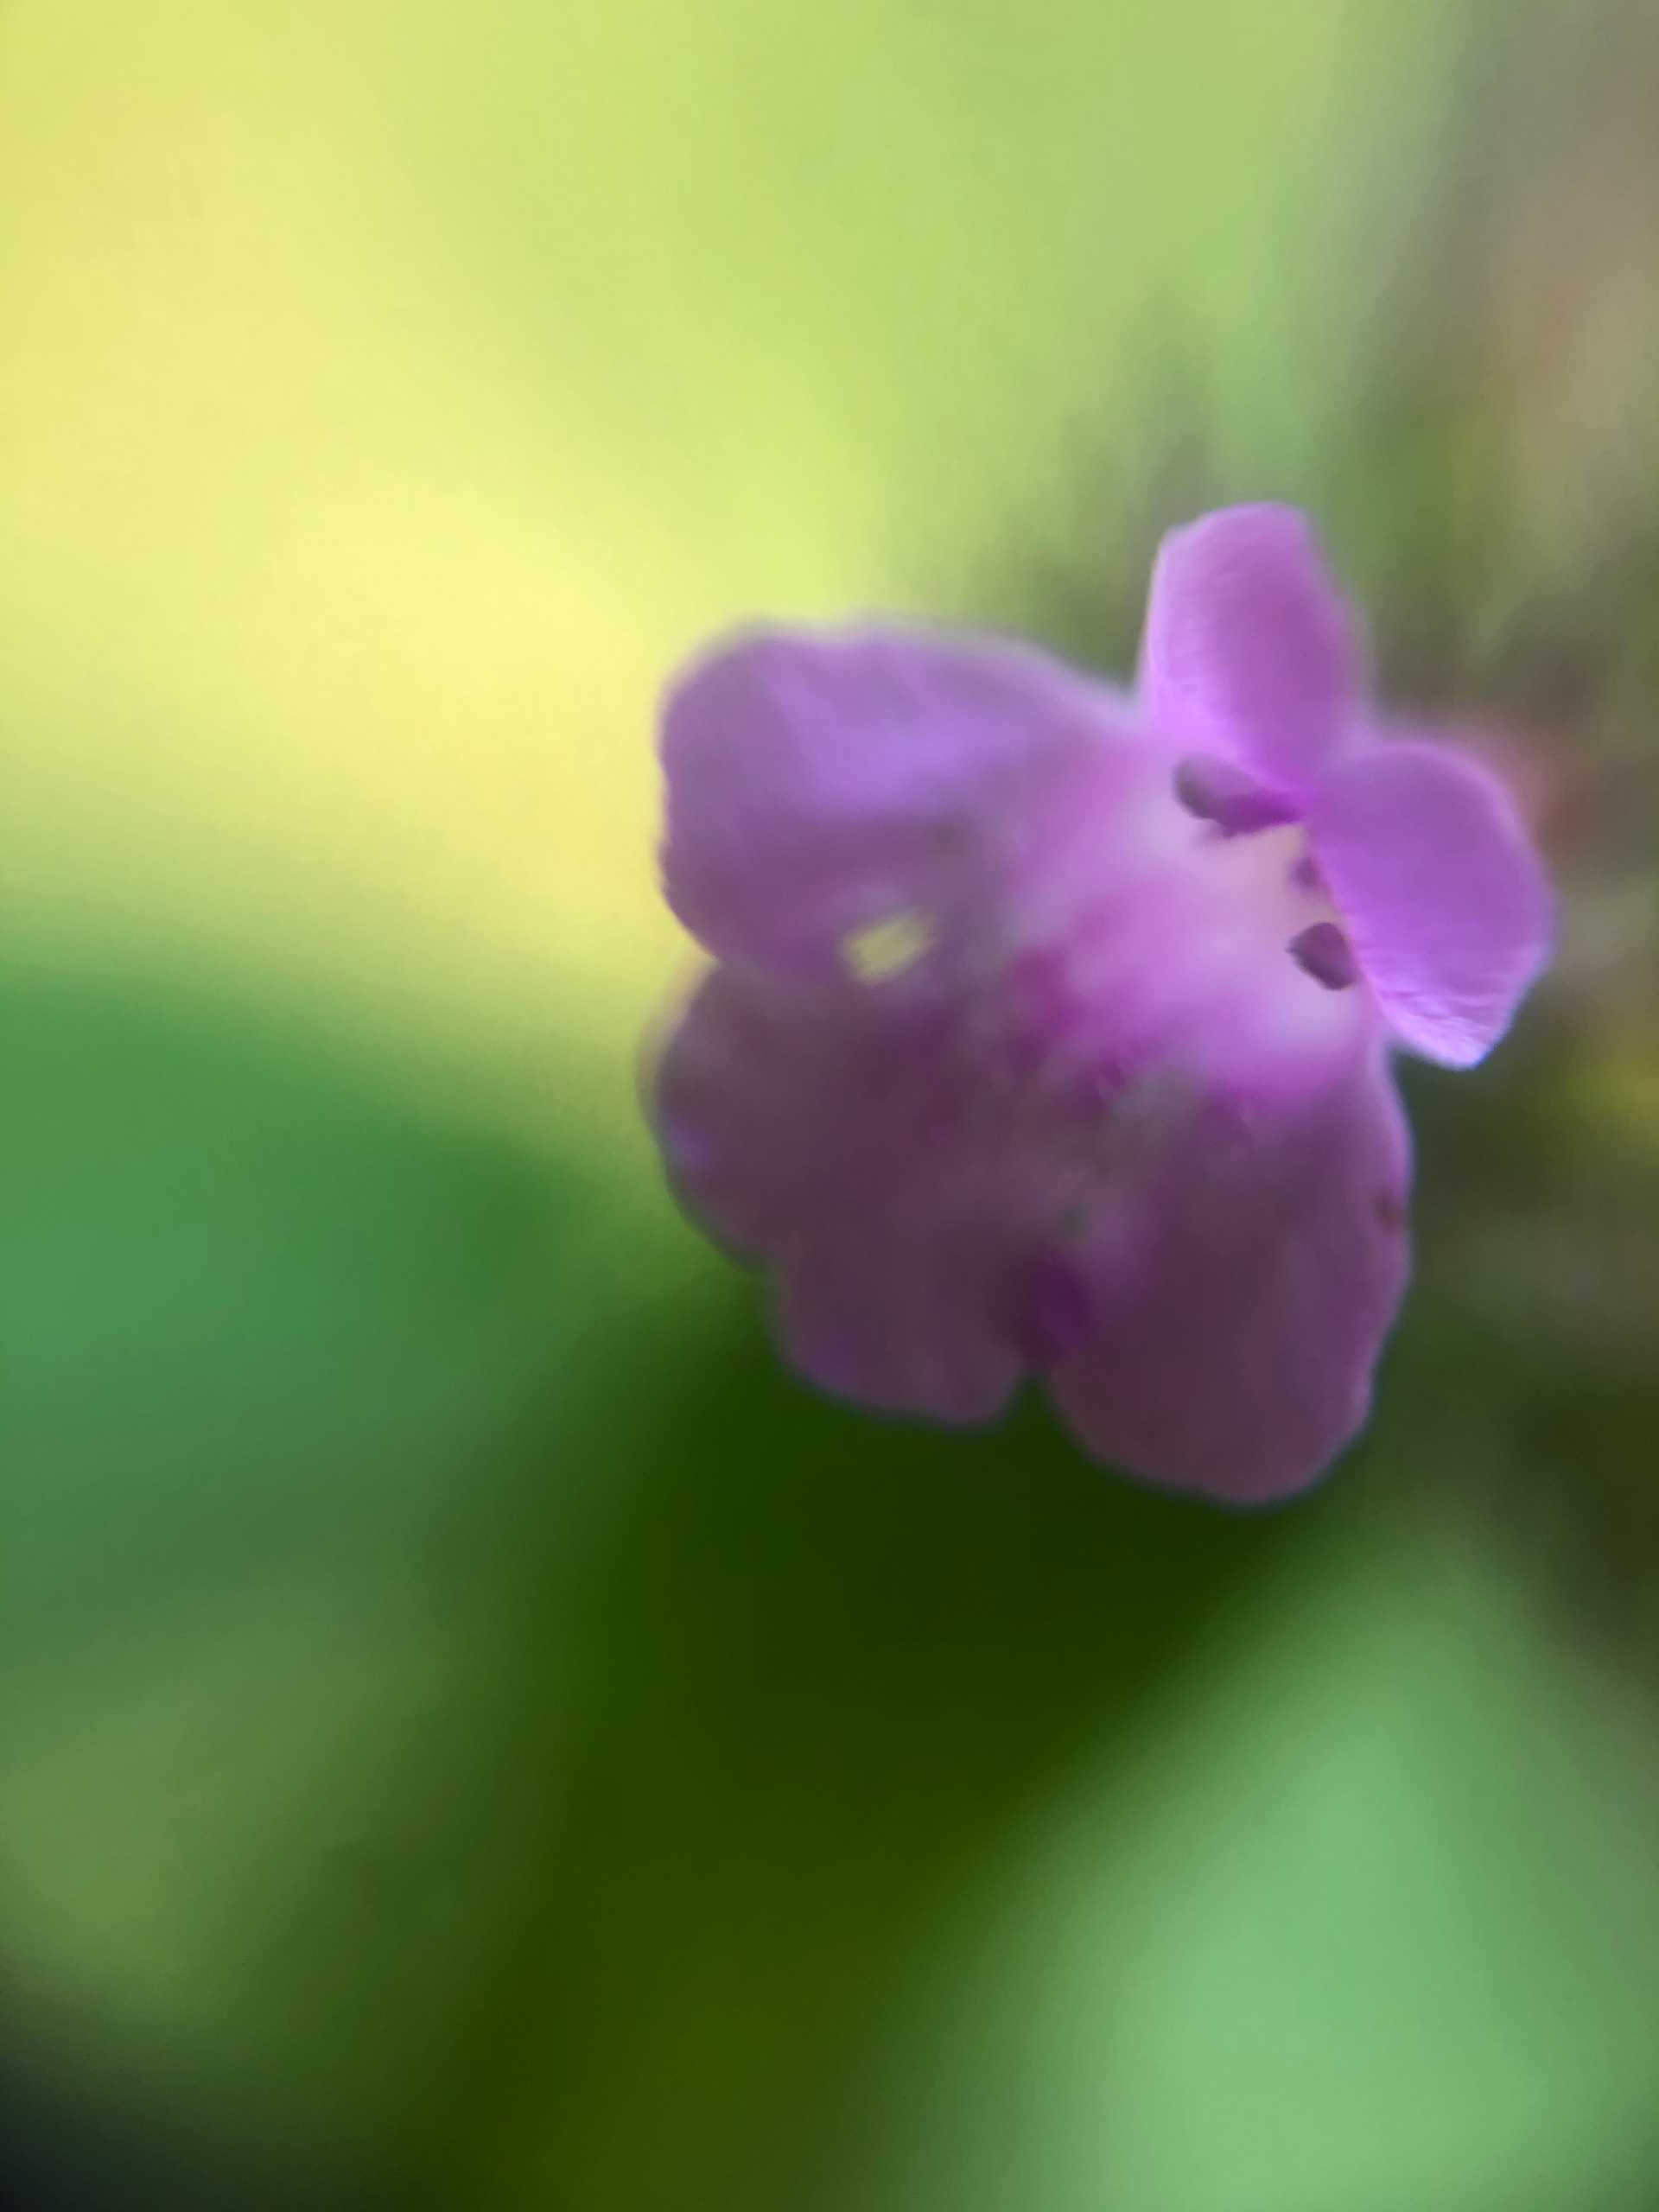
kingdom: Plantae
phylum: Tracheophyta
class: Magnoliopsida
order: Lamiales
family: Lamiaceae
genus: Clinopodium
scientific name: Clinopodium vulgare
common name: Kransbørste
